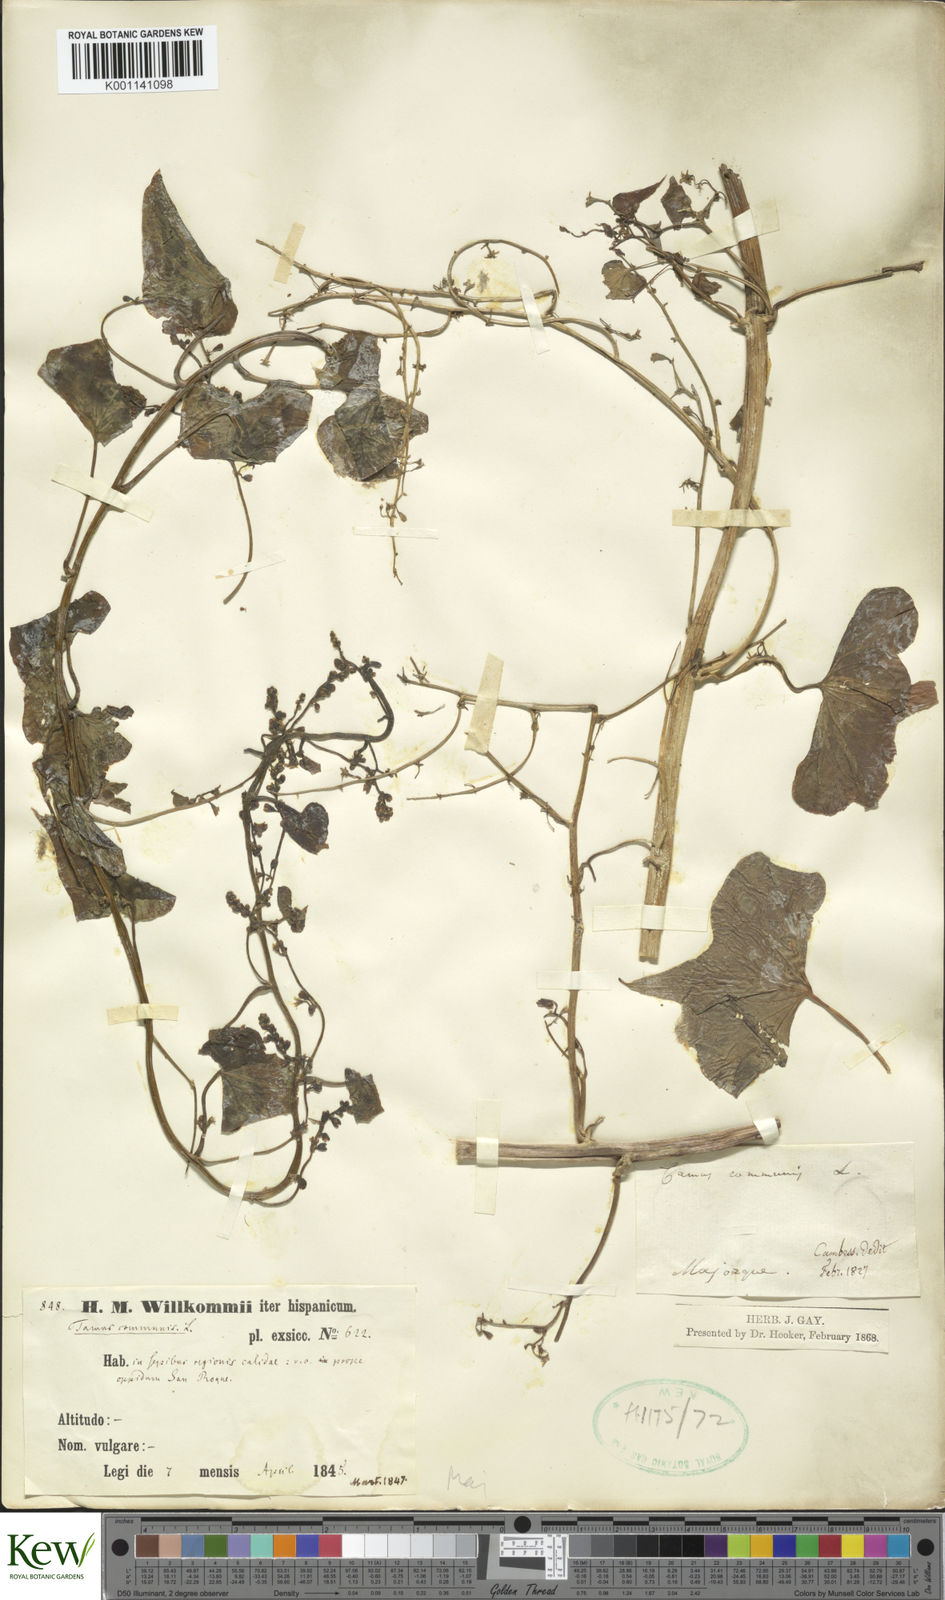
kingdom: Plantae
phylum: Tracheophyta
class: Liliopsida
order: Dioscoreales
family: Dioscoreaceae
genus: Dioscorea
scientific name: Dioscorea communis
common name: Black-bindweed
